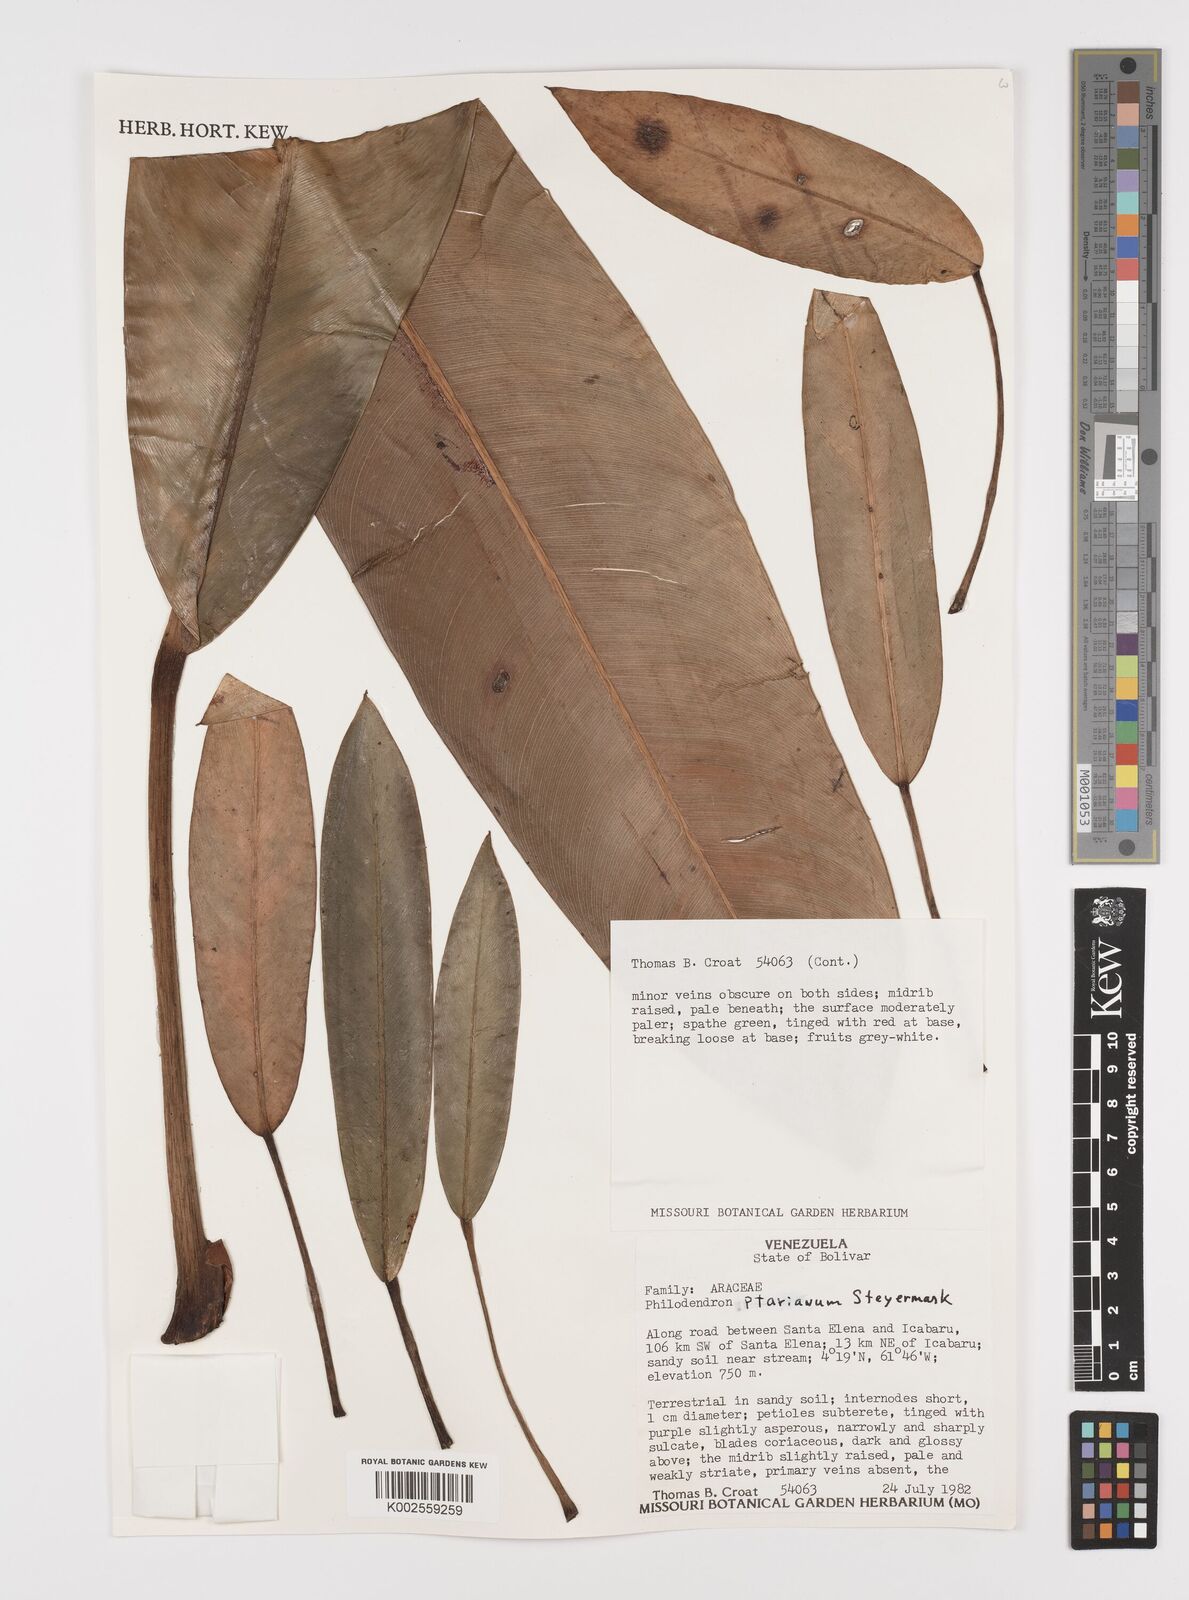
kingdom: Plantae
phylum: Tracheophyta
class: Liliopsida
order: Alismatales
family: Araceae
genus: Philodendron
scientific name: Philodendron callosum
